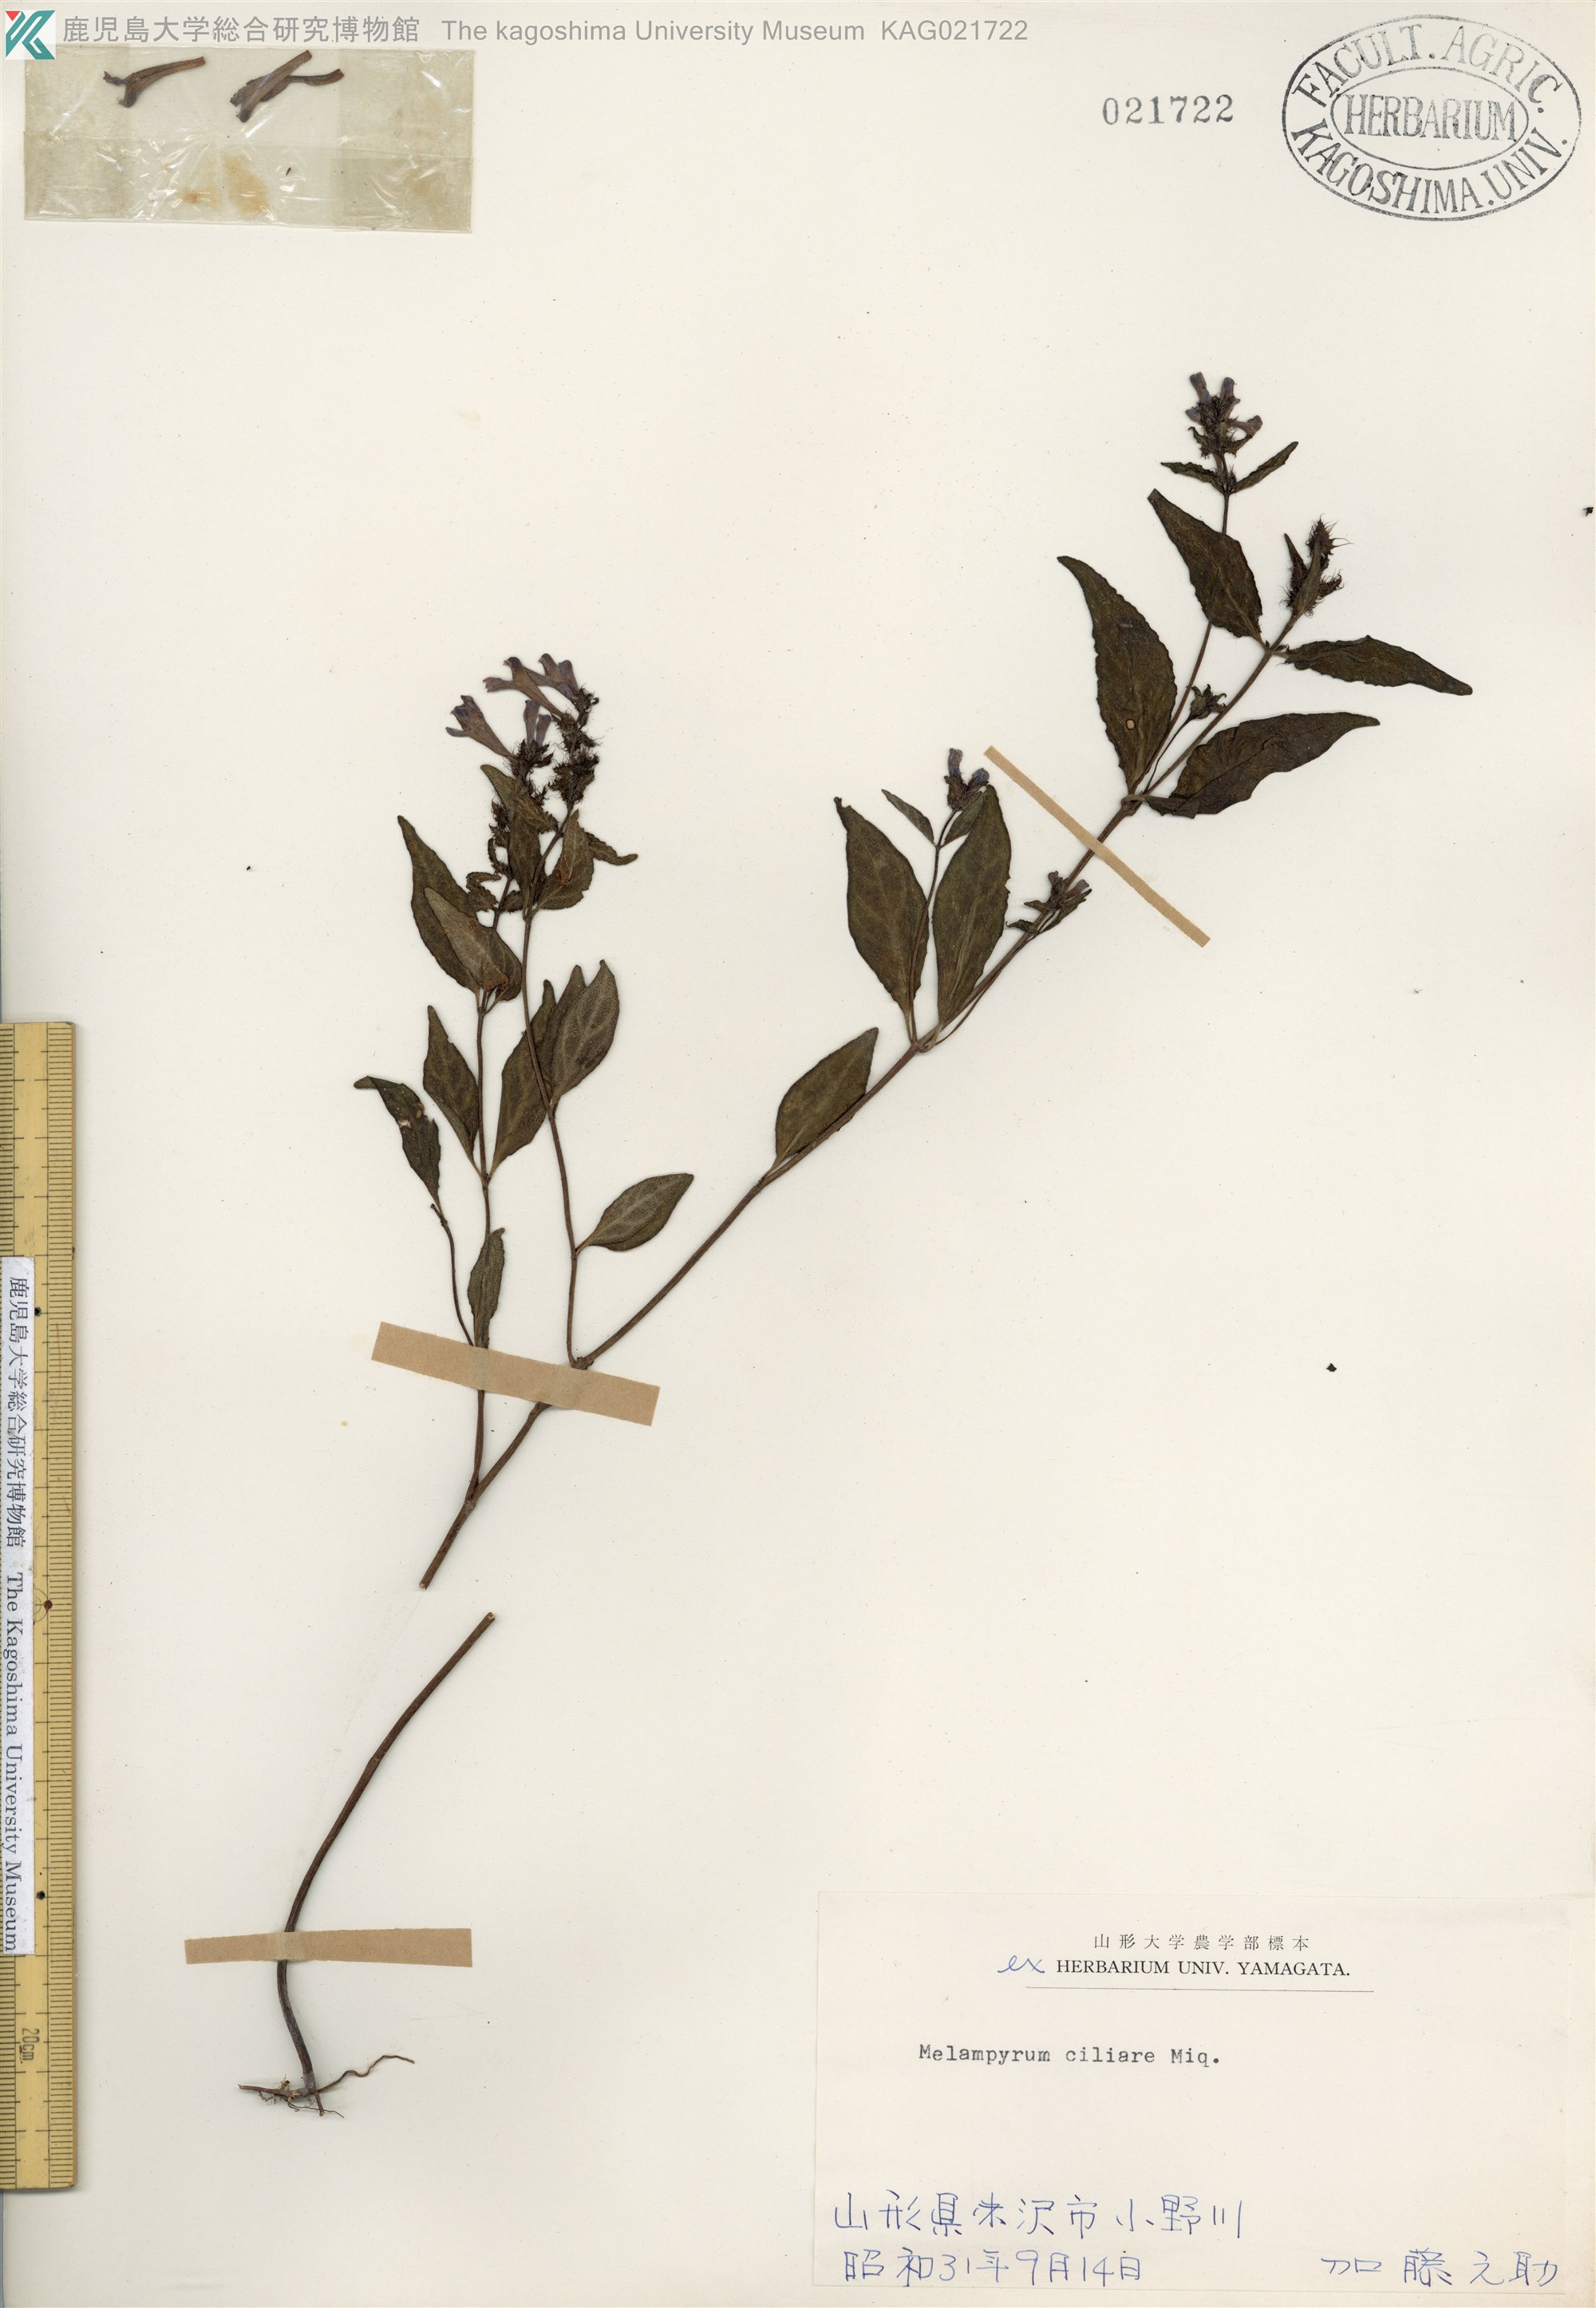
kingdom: Plantae
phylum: Tracheophyta
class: Magnoliopsida
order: Lamiales
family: Orobanchaceae
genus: Melampyrum
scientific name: Melampyrum roseum
